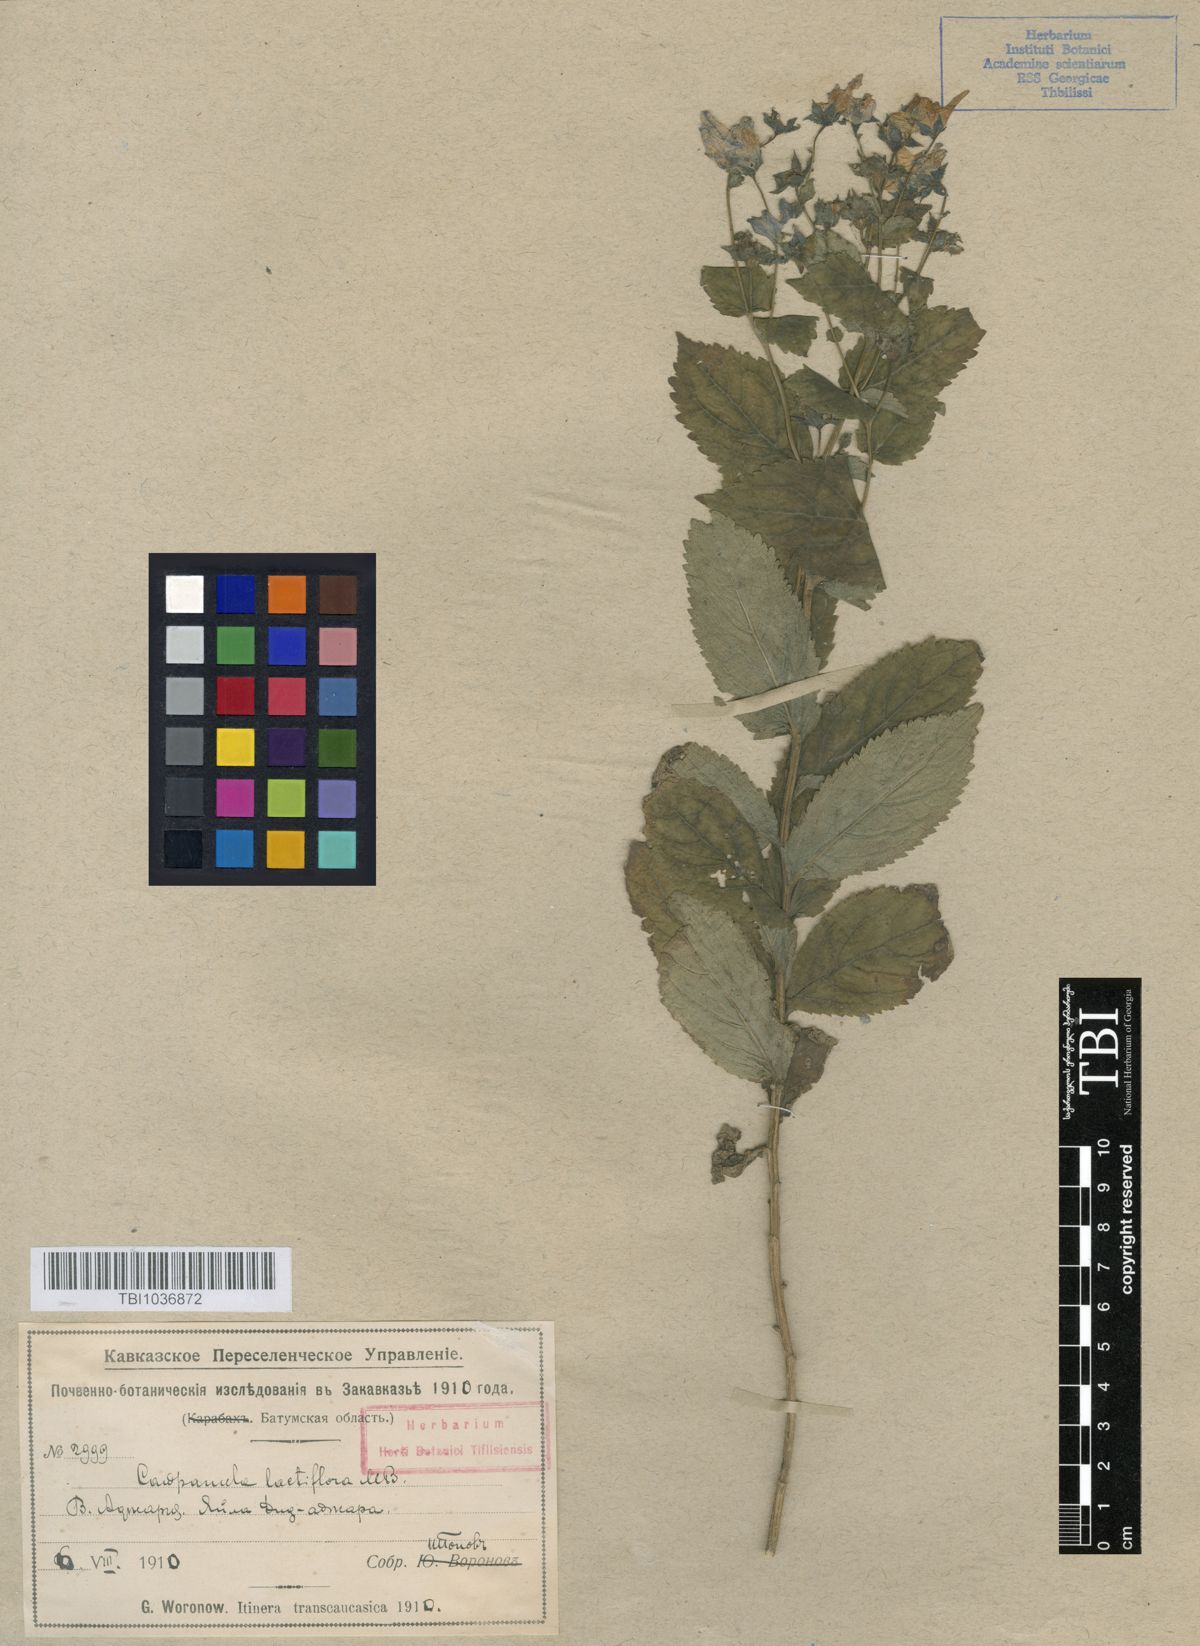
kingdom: Plantae
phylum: Tracheophyta
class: Magnoliopsida
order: Asterales
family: Campanulaceae
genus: Campanula
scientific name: Campanula lactiflora
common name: Milky bellflower
